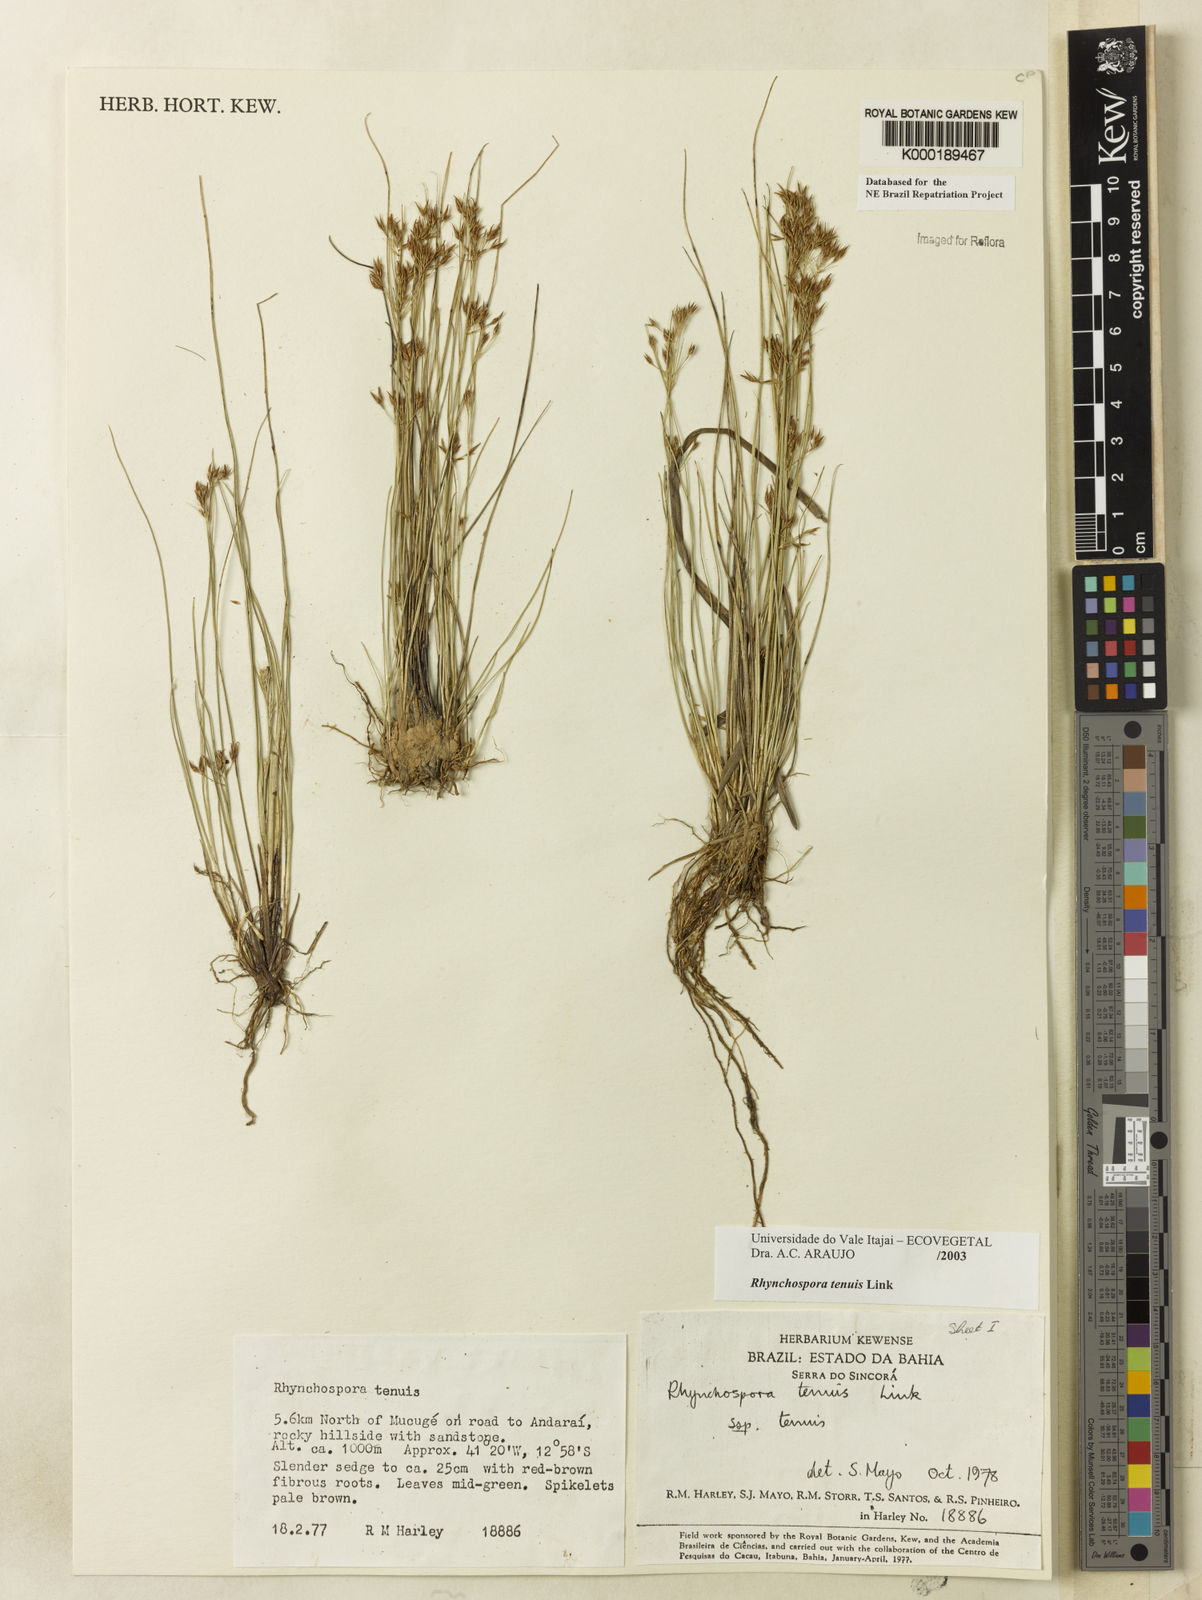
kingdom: Plantae
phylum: Tracheophyta
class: Liliopsida
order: Poales
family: Cyperaceae
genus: Rhynchospora
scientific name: Rhynchospora tenuis
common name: Quill beaksedge
